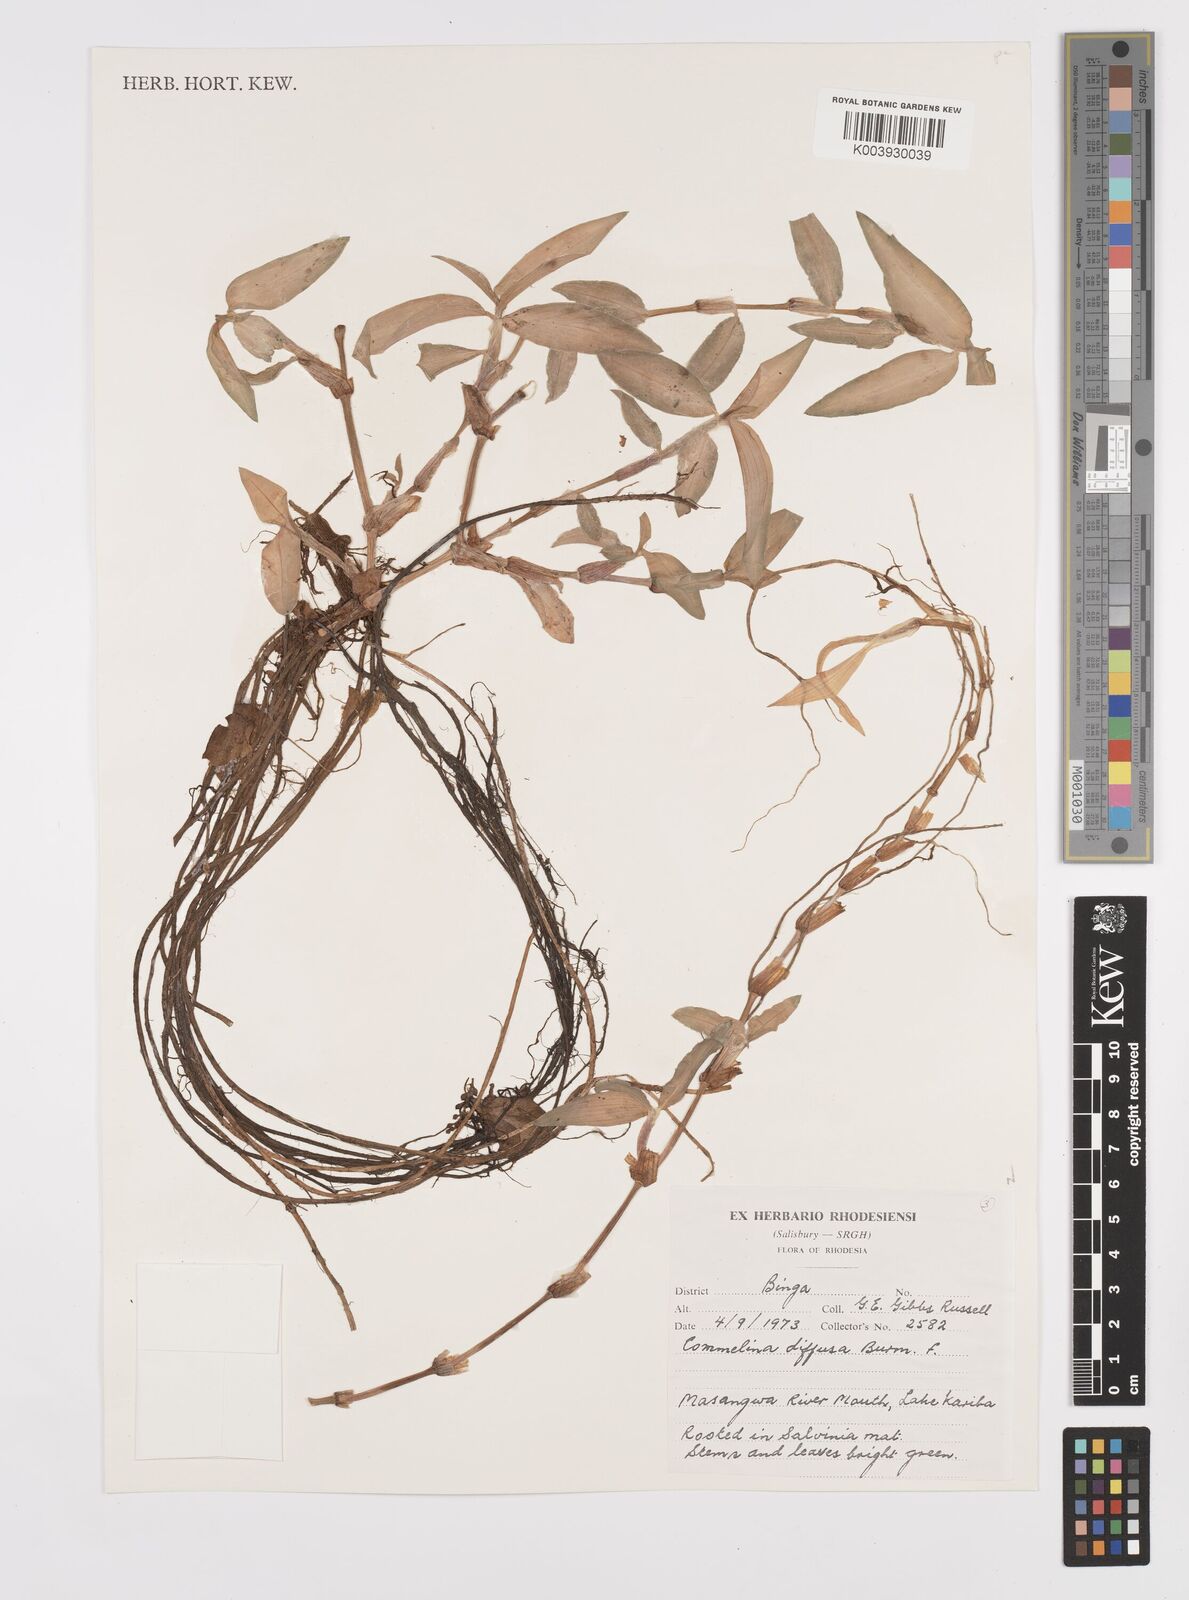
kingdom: Plantae
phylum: Tracheophyta
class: Liliopsida
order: Commelinales
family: Commelinaceae
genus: Commelina
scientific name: Commelina diffusa
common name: Climbing dayflower
